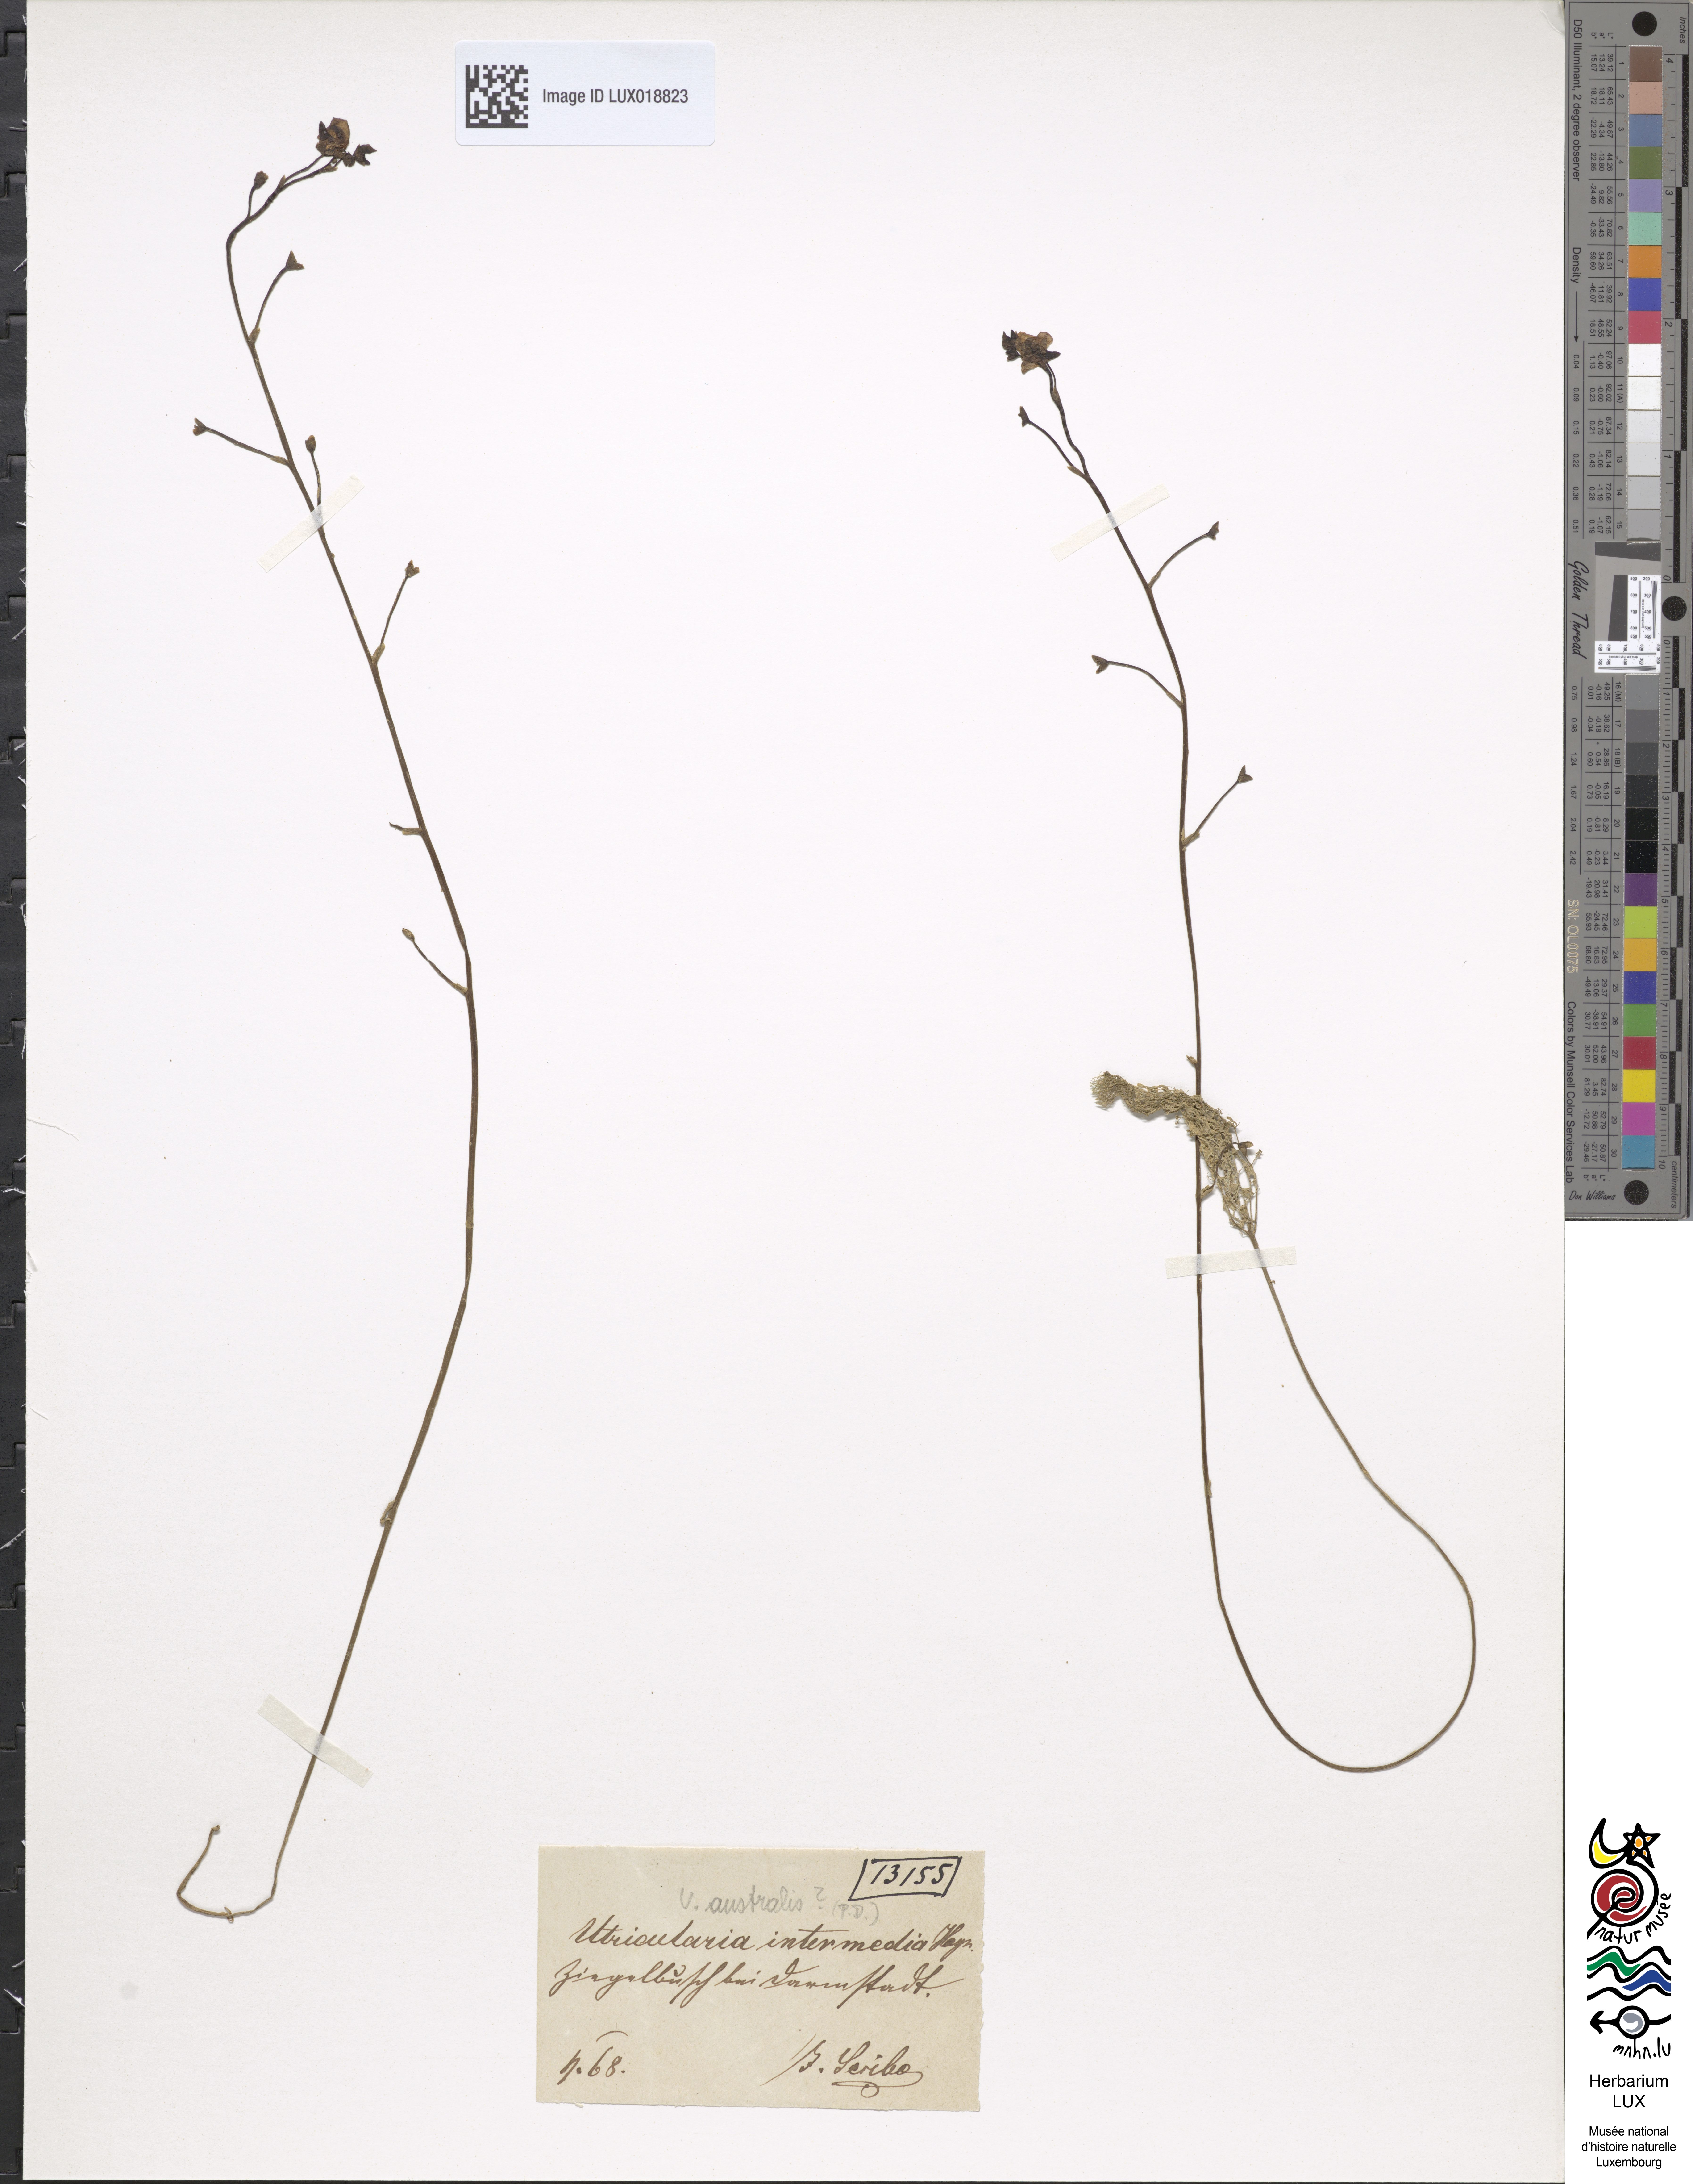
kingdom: Plantae
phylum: Tracheophyta
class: Magnoliopsida
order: Lamiales
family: Lentibulariaceae
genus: Utricularia
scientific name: Utricularia intermedia
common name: Intermediate bladderwort
